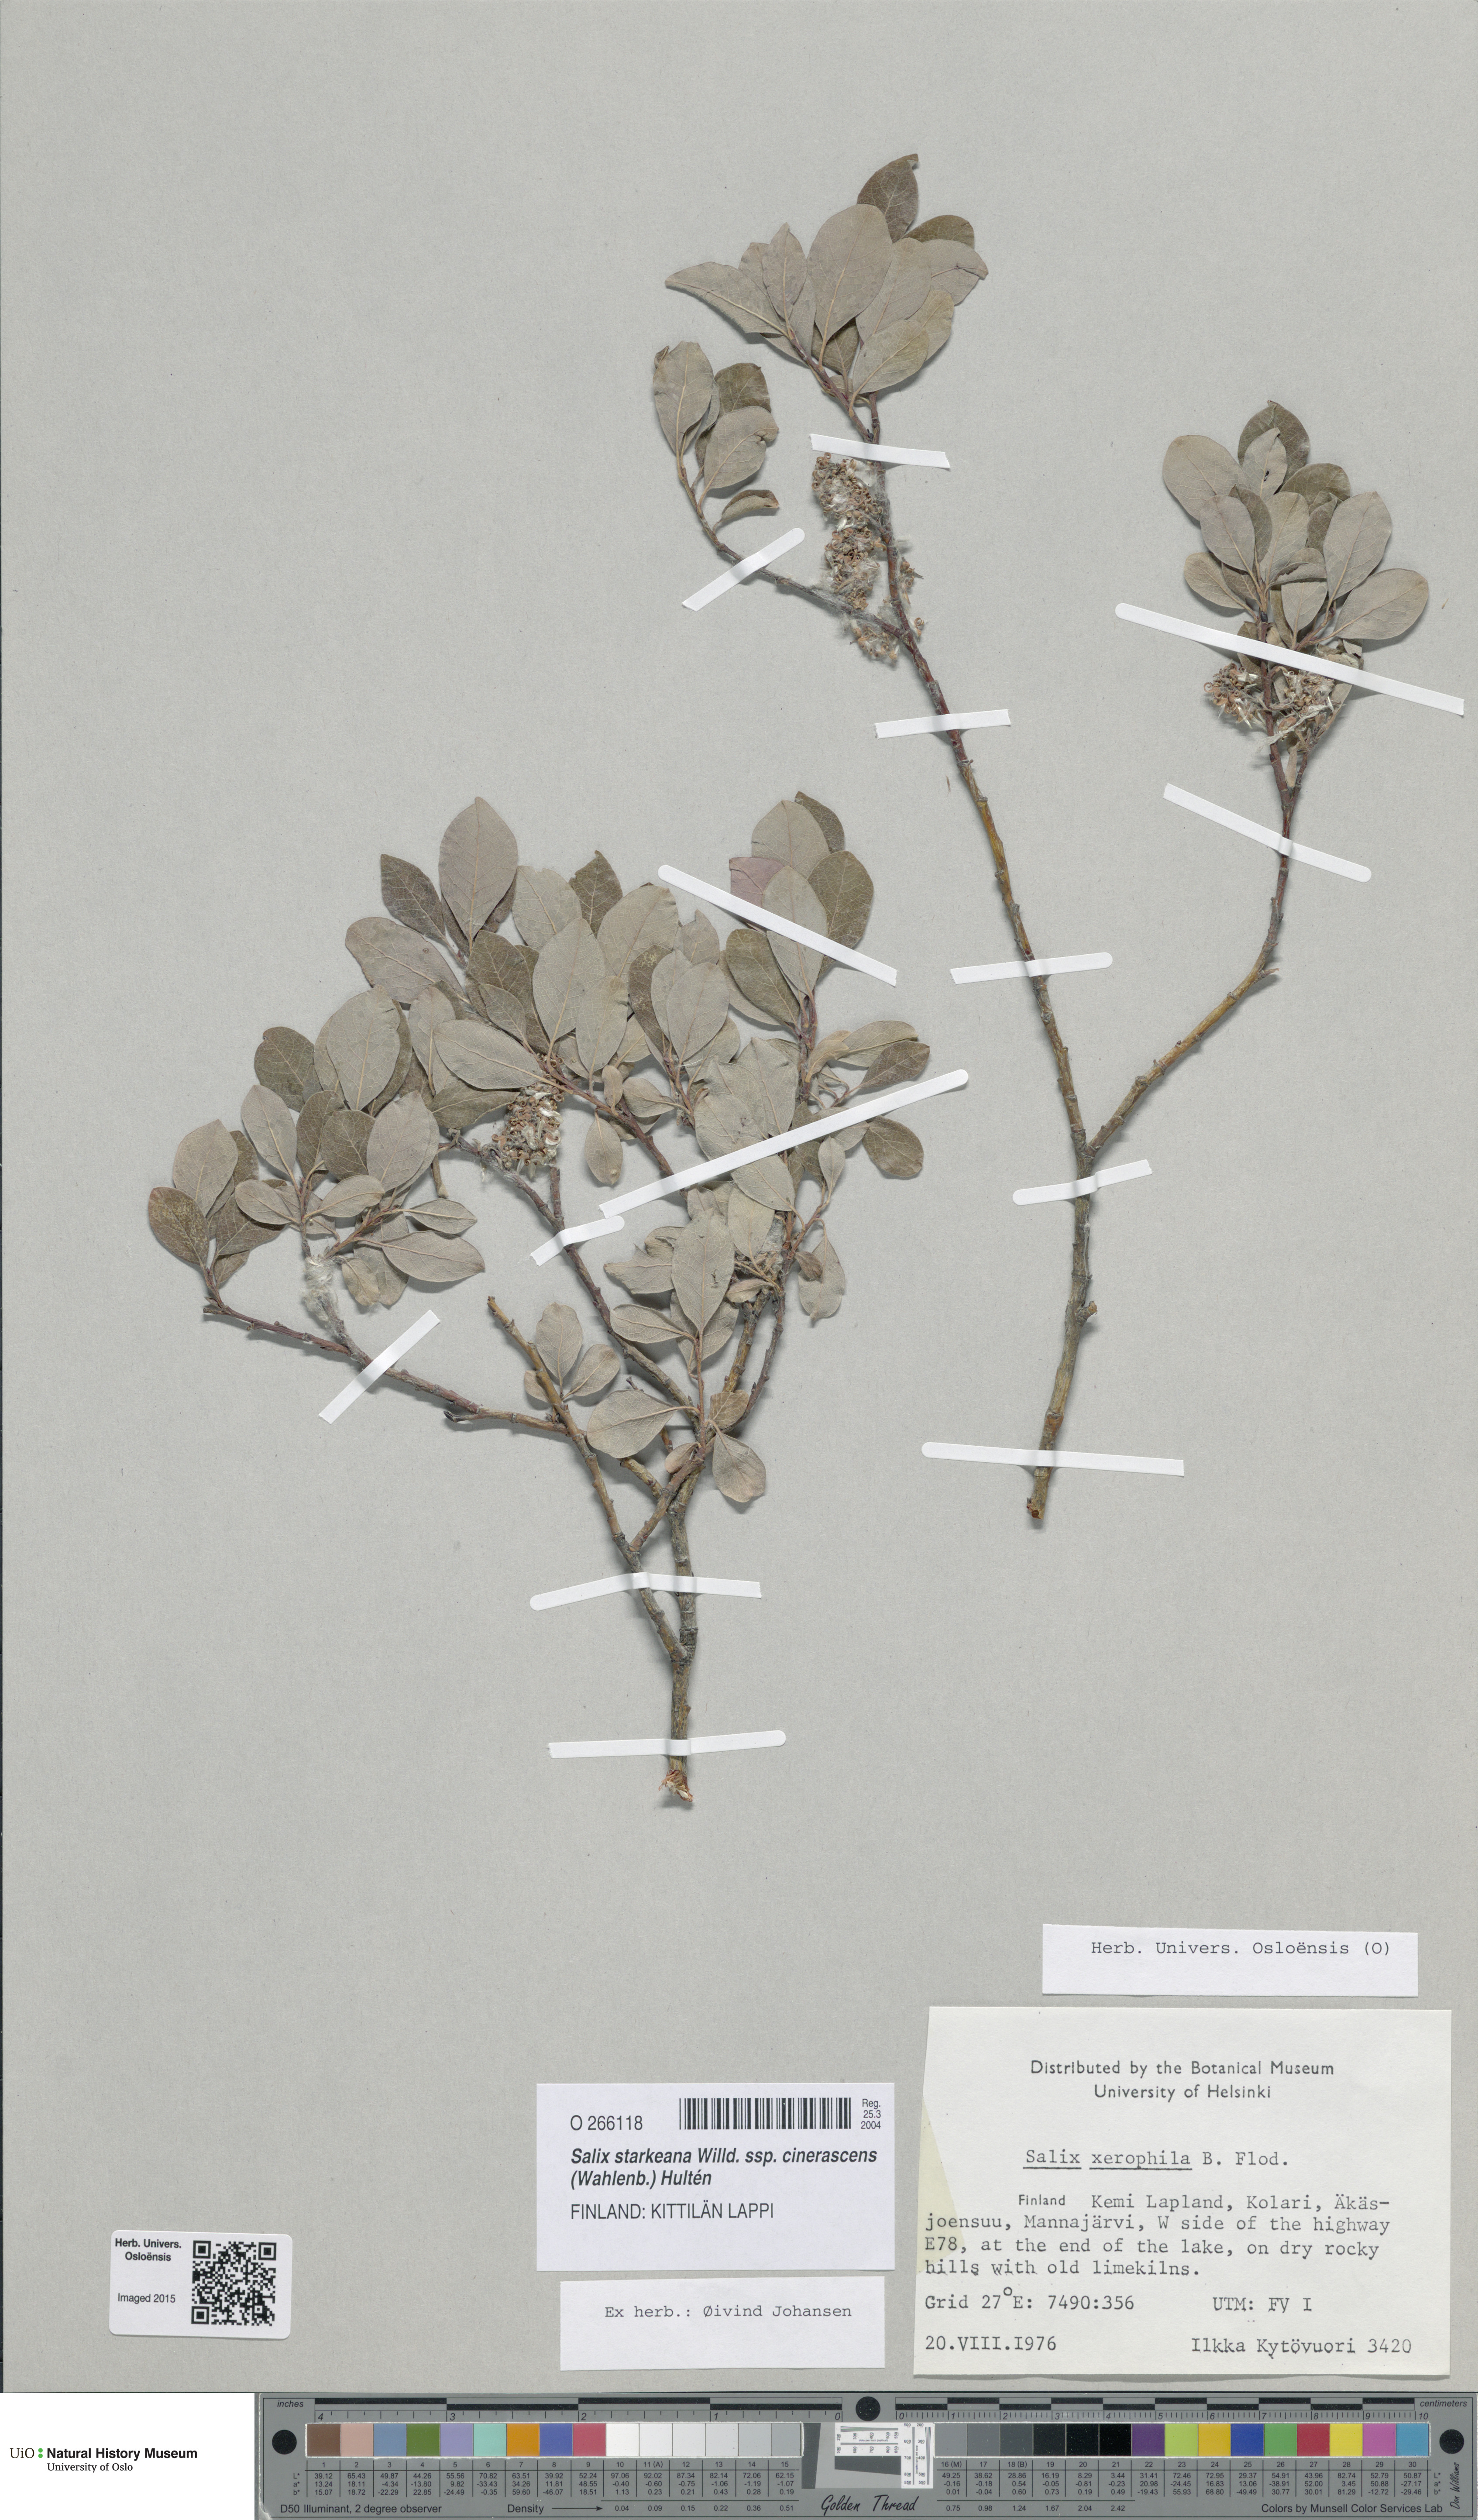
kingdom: Plantae
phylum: Tracheophyta
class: Magnoliopsida
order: Malpighiales
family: Salicaceae
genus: Salix
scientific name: Salix bebbiana
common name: Bebb's willow
